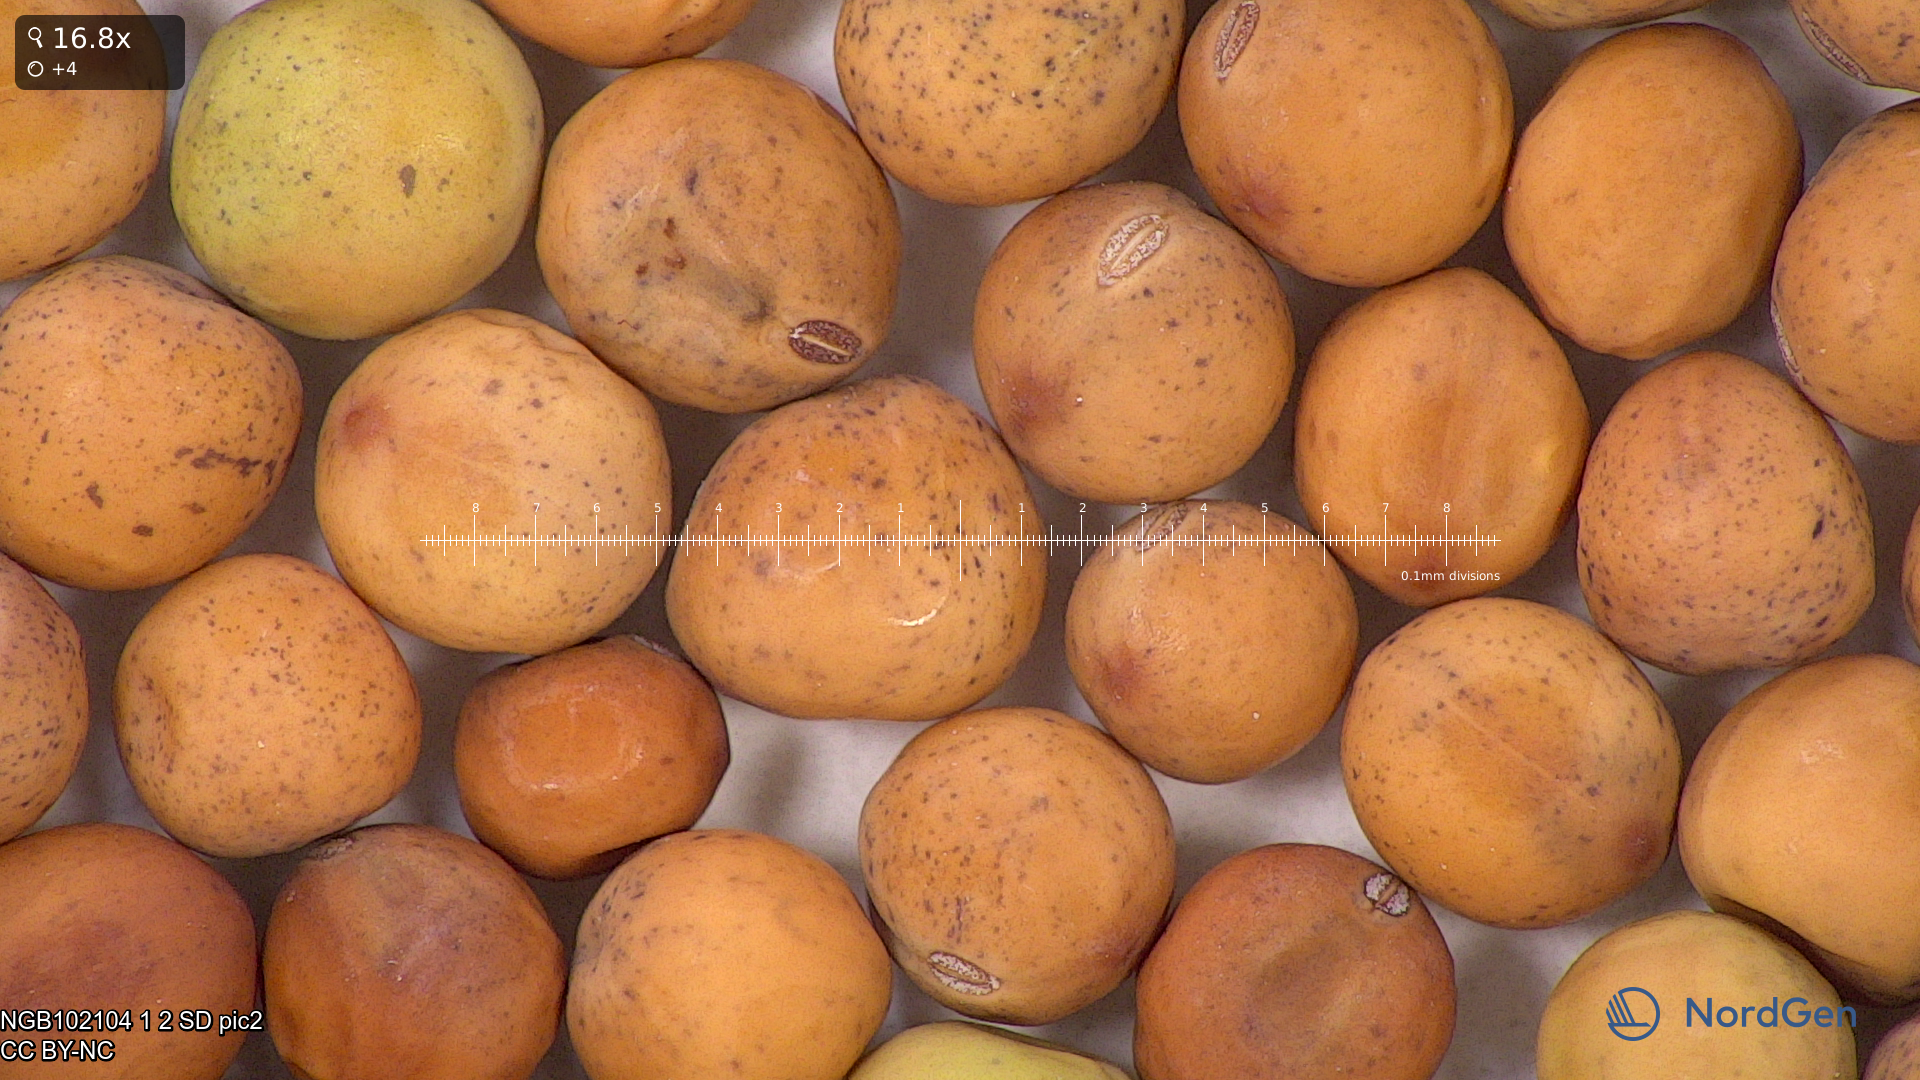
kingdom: Plantae
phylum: Tracheophyta
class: Magnoliopsida
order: Fabales
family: Fabaceae
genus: Lathyrus
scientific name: Lathyrus oleraceus
